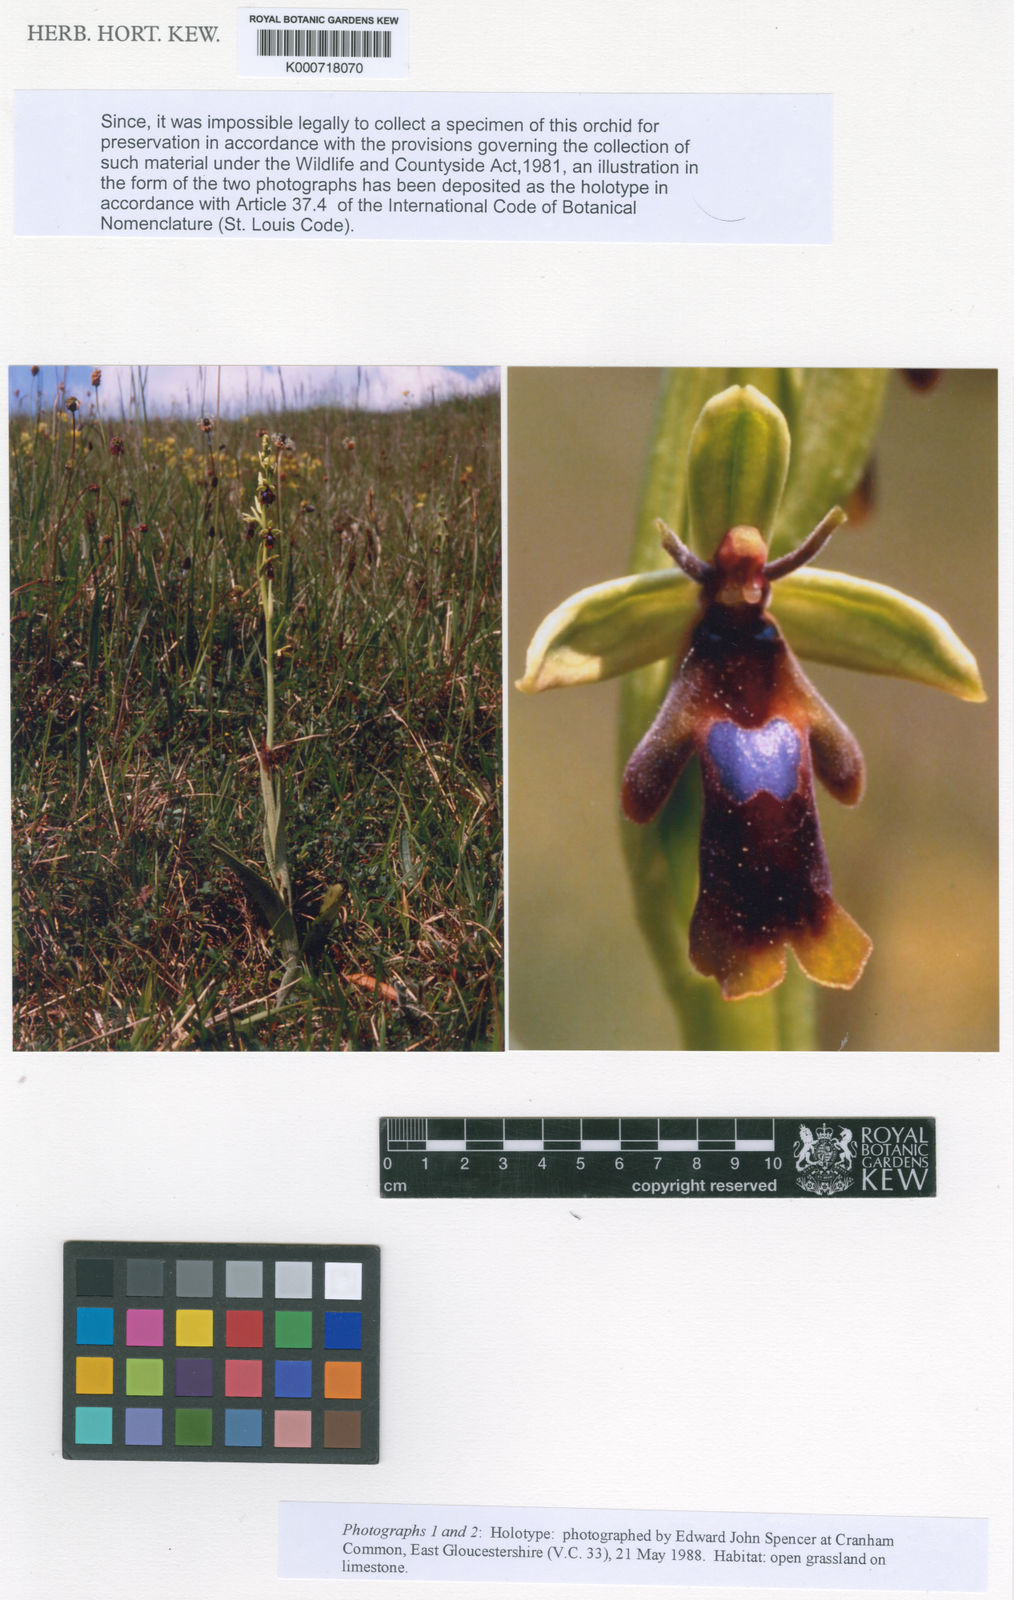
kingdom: Plantae
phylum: Tracheophyta
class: Liliopsida
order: Asparagales
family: Orchidaceae
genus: Ophrys
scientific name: Ophrys insectifera
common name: Fly orchid
